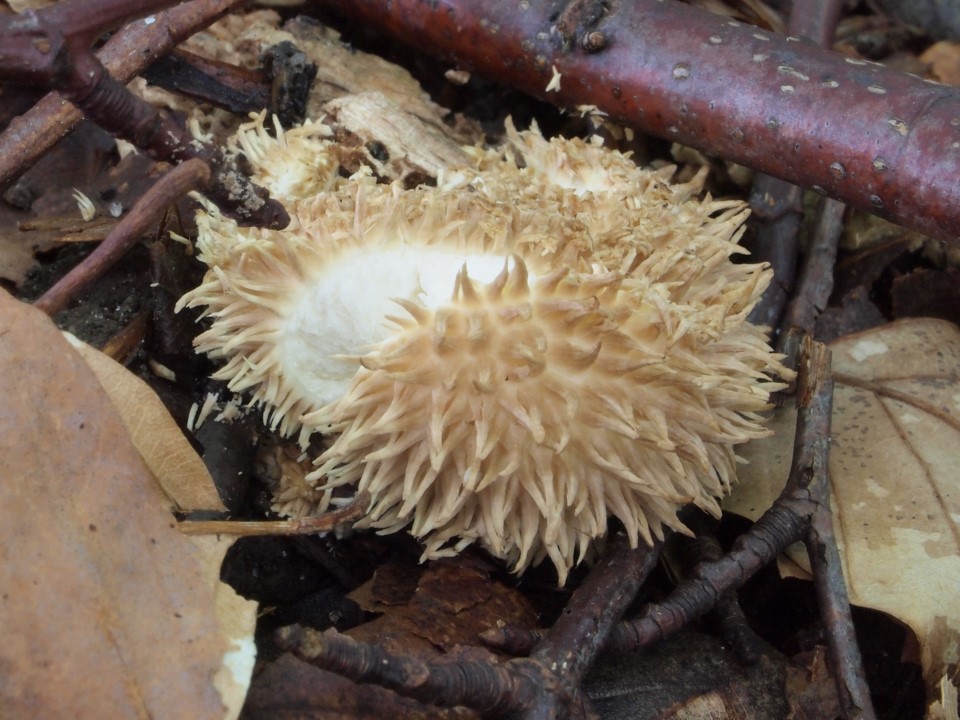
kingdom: Fungi
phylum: Basidiomycota
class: Agaricomycetes
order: Agaricales
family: Lycoperdaceae
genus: Lycoperdon
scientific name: Lycoperdon echinatum
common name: pindsvine-støvbold
